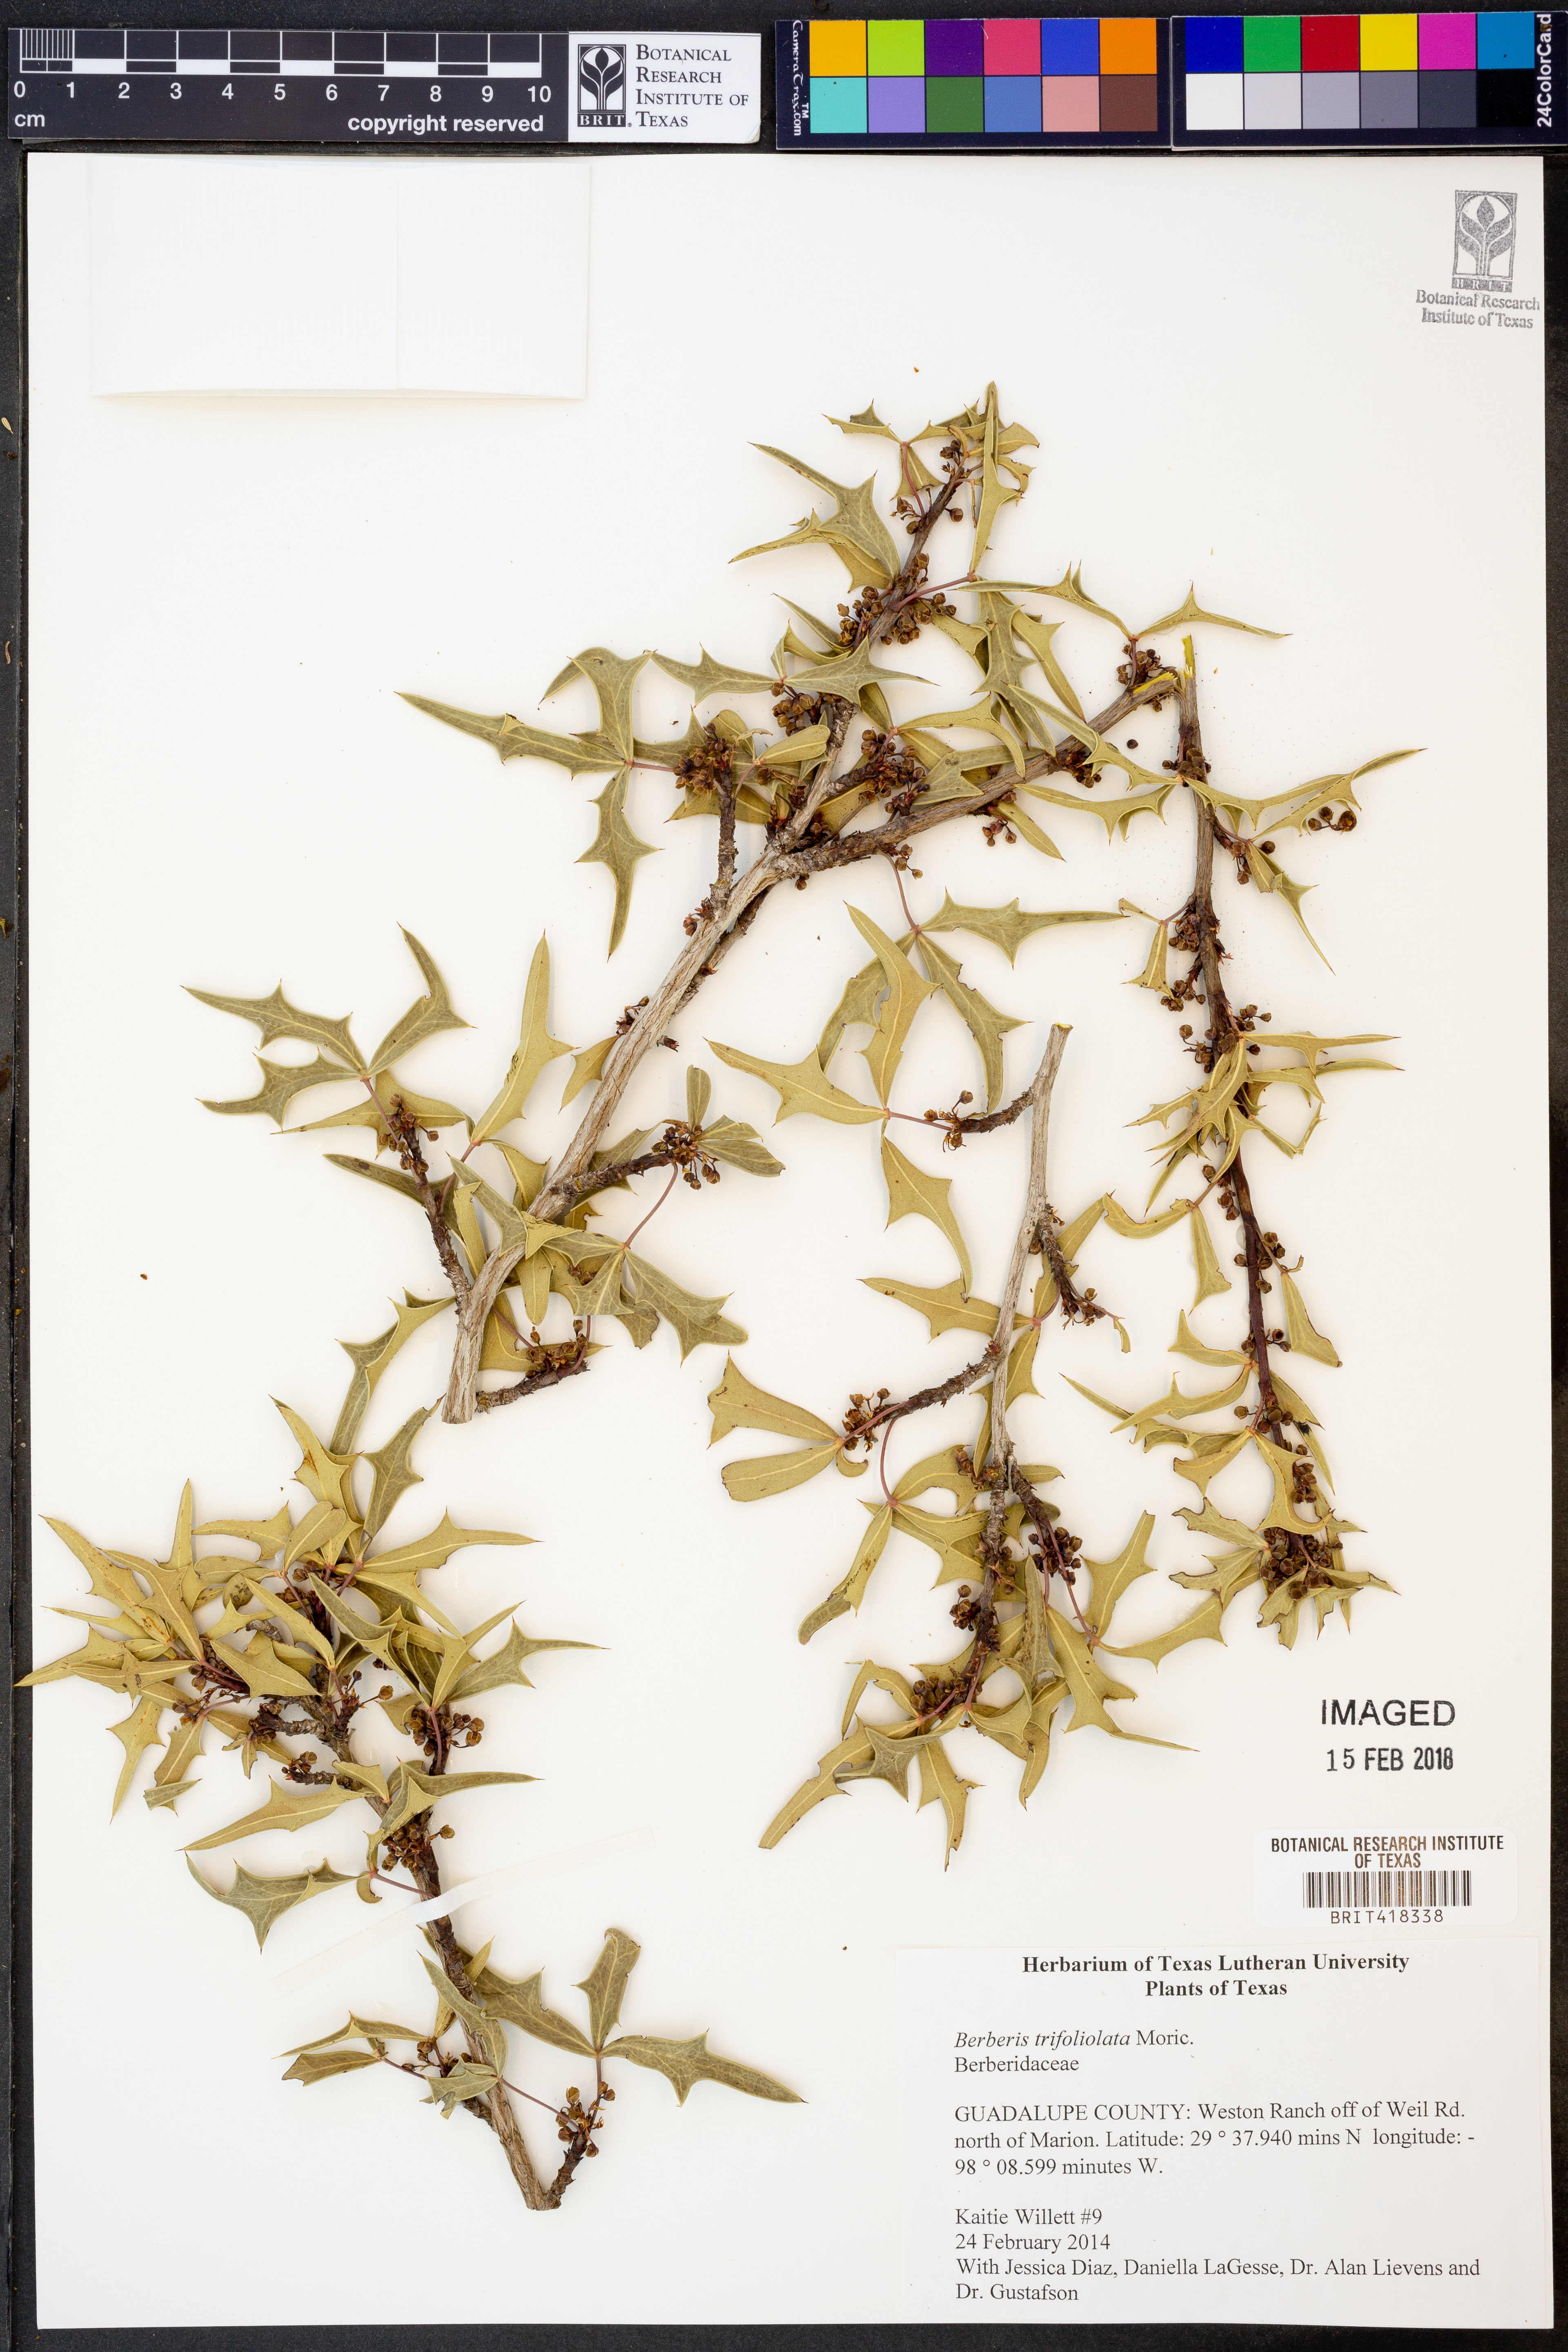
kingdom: Plantae
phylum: Tracheophyta
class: Magnoliopsida
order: Ranunculales
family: Berberidaceae
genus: Alloberberis
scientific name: Alloberberis fremontii
